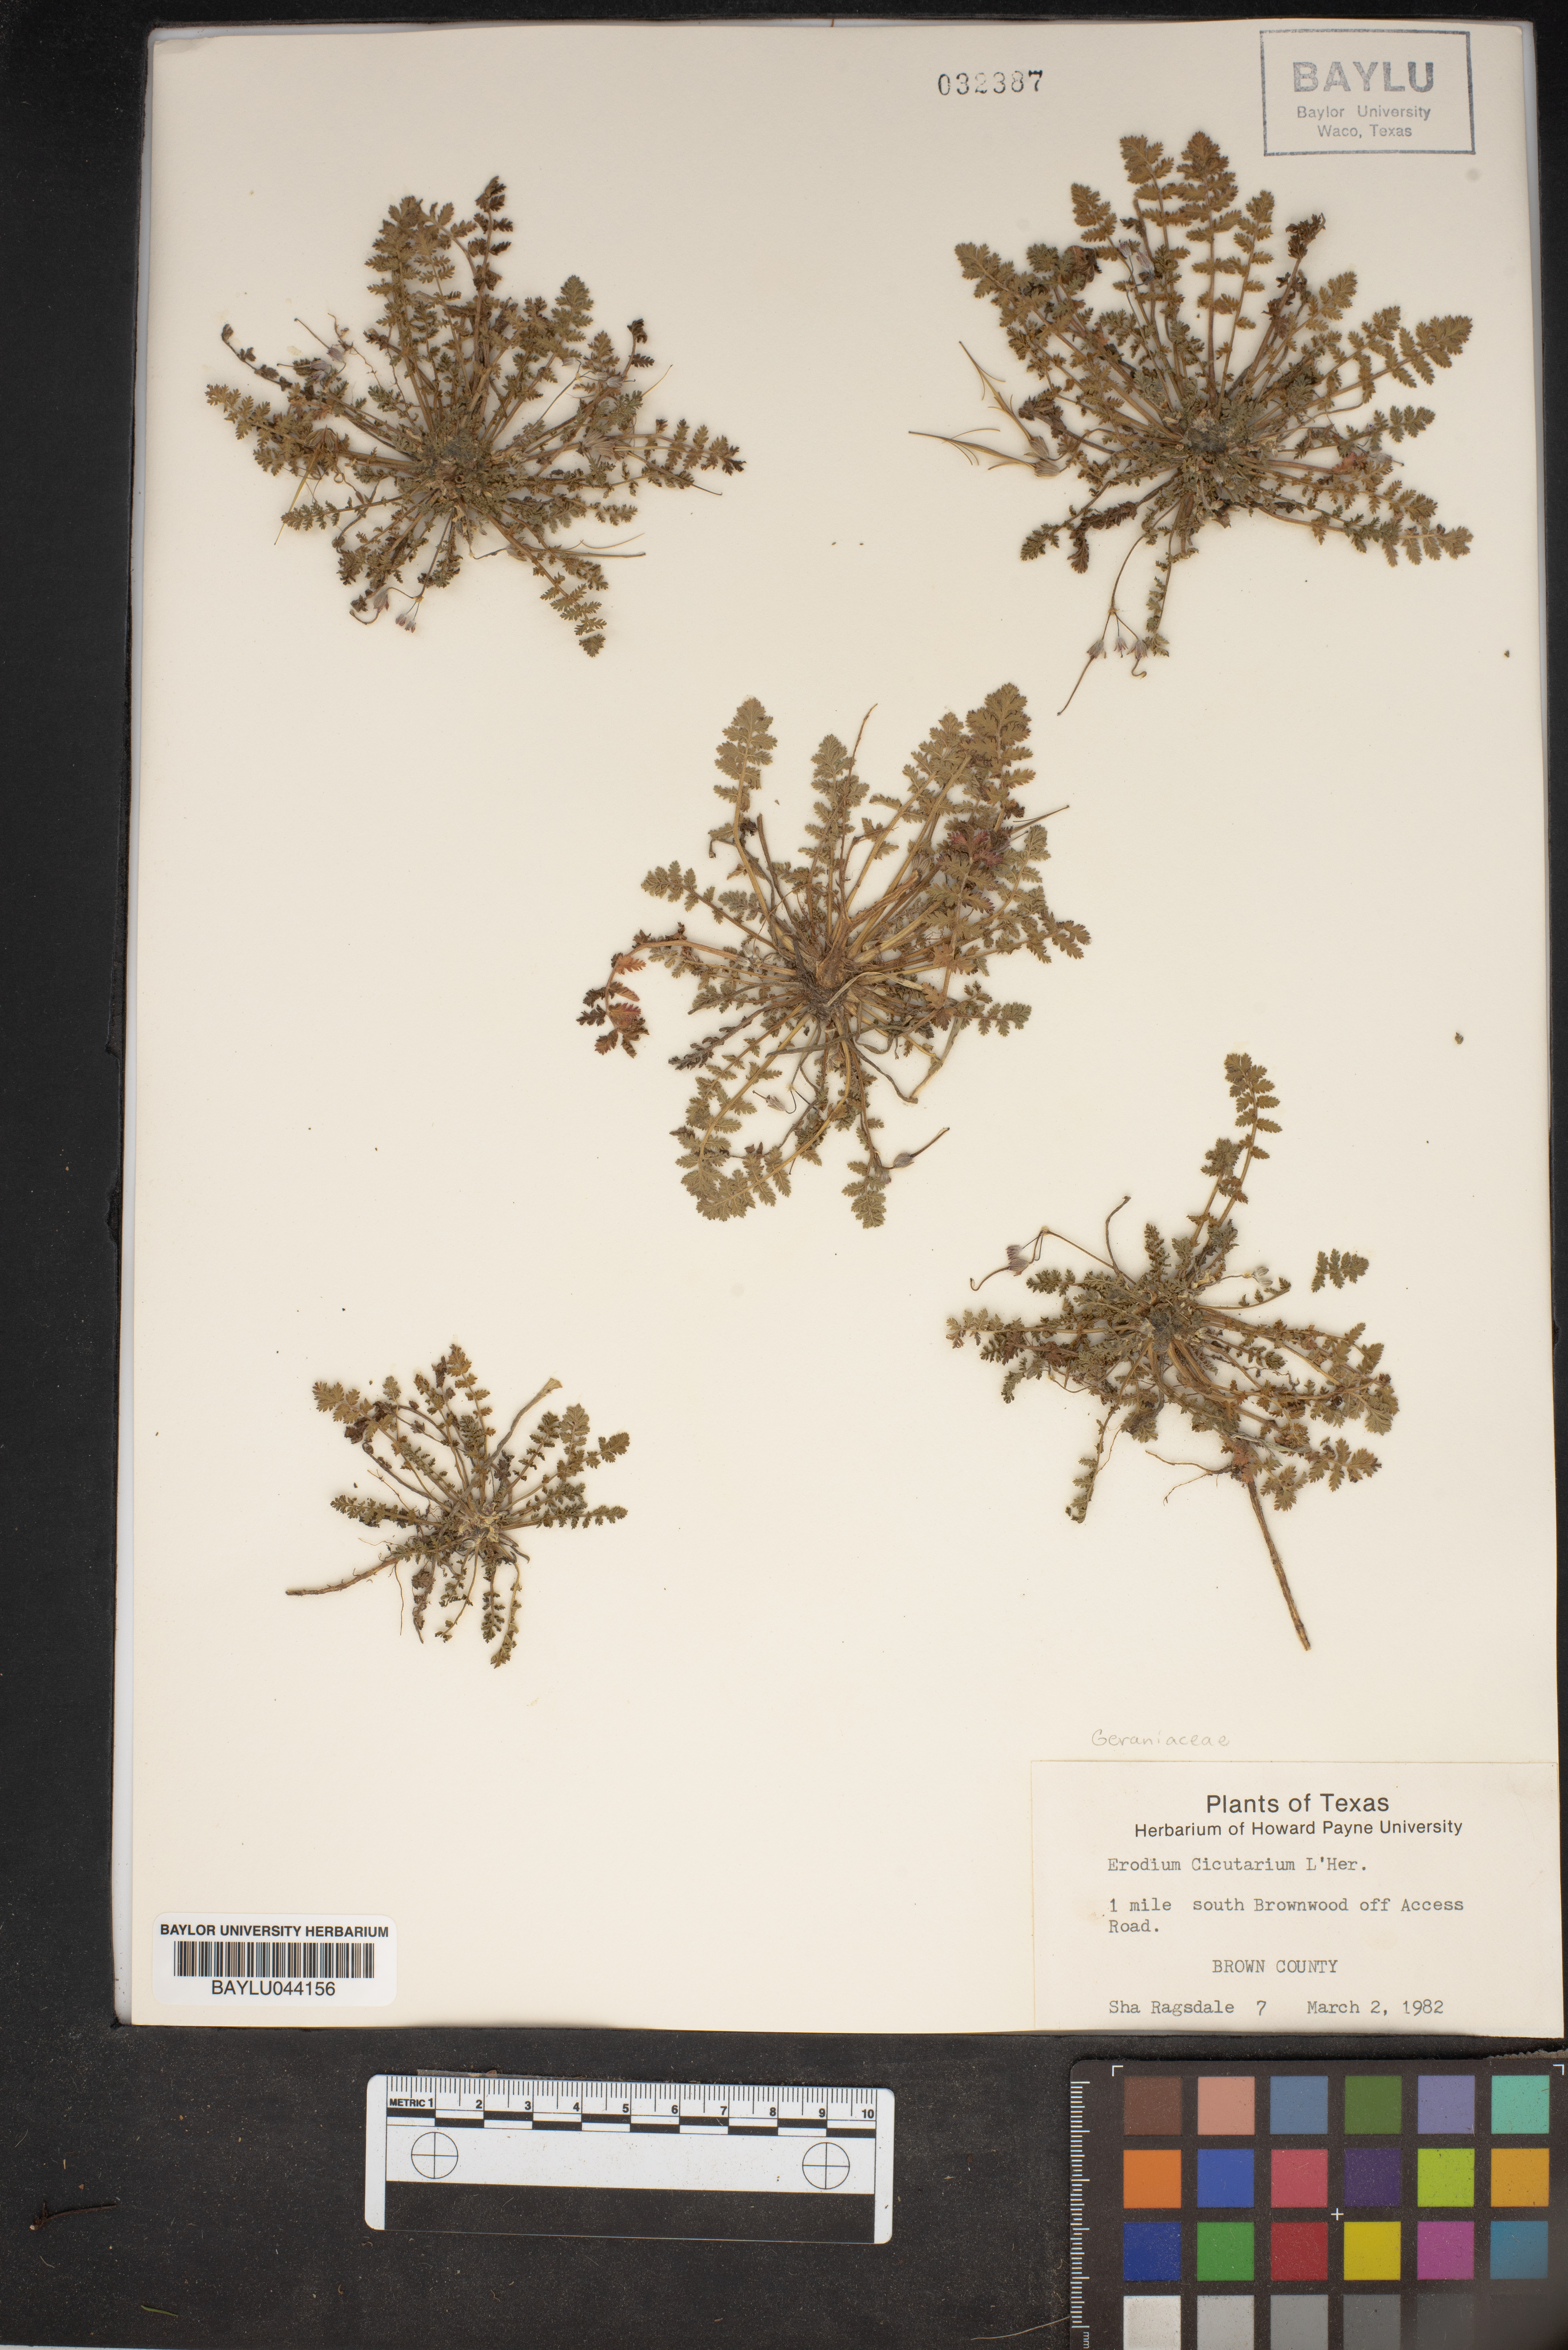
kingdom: Plantae
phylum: Tracheophyta
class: Magnoliopsida
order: Geraniales
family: Geraniaceae
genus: Erodium
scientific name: Erodium cicutarium
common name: Common stork's-bill
